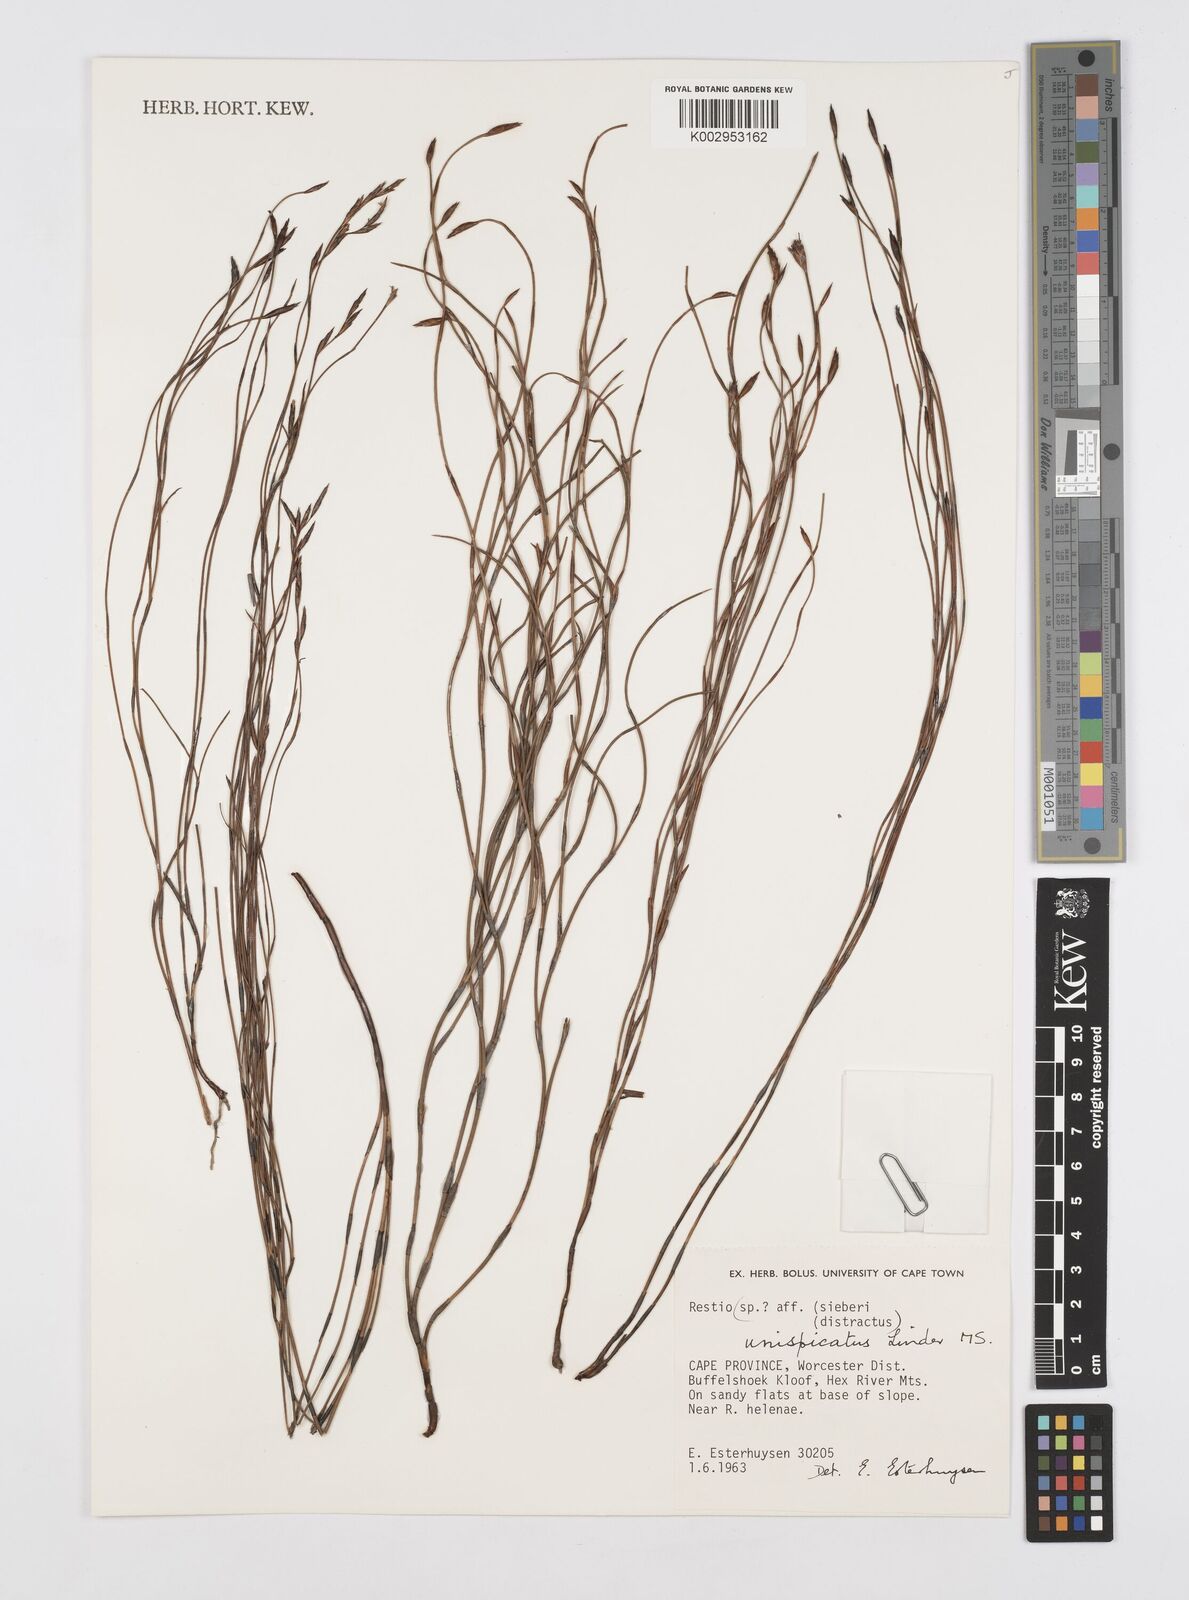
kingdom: Plantae
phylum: Tracheophyta
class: Liliopsida
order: Poales
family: Restionaceae
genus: Restio
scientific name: Restio unispicatus
